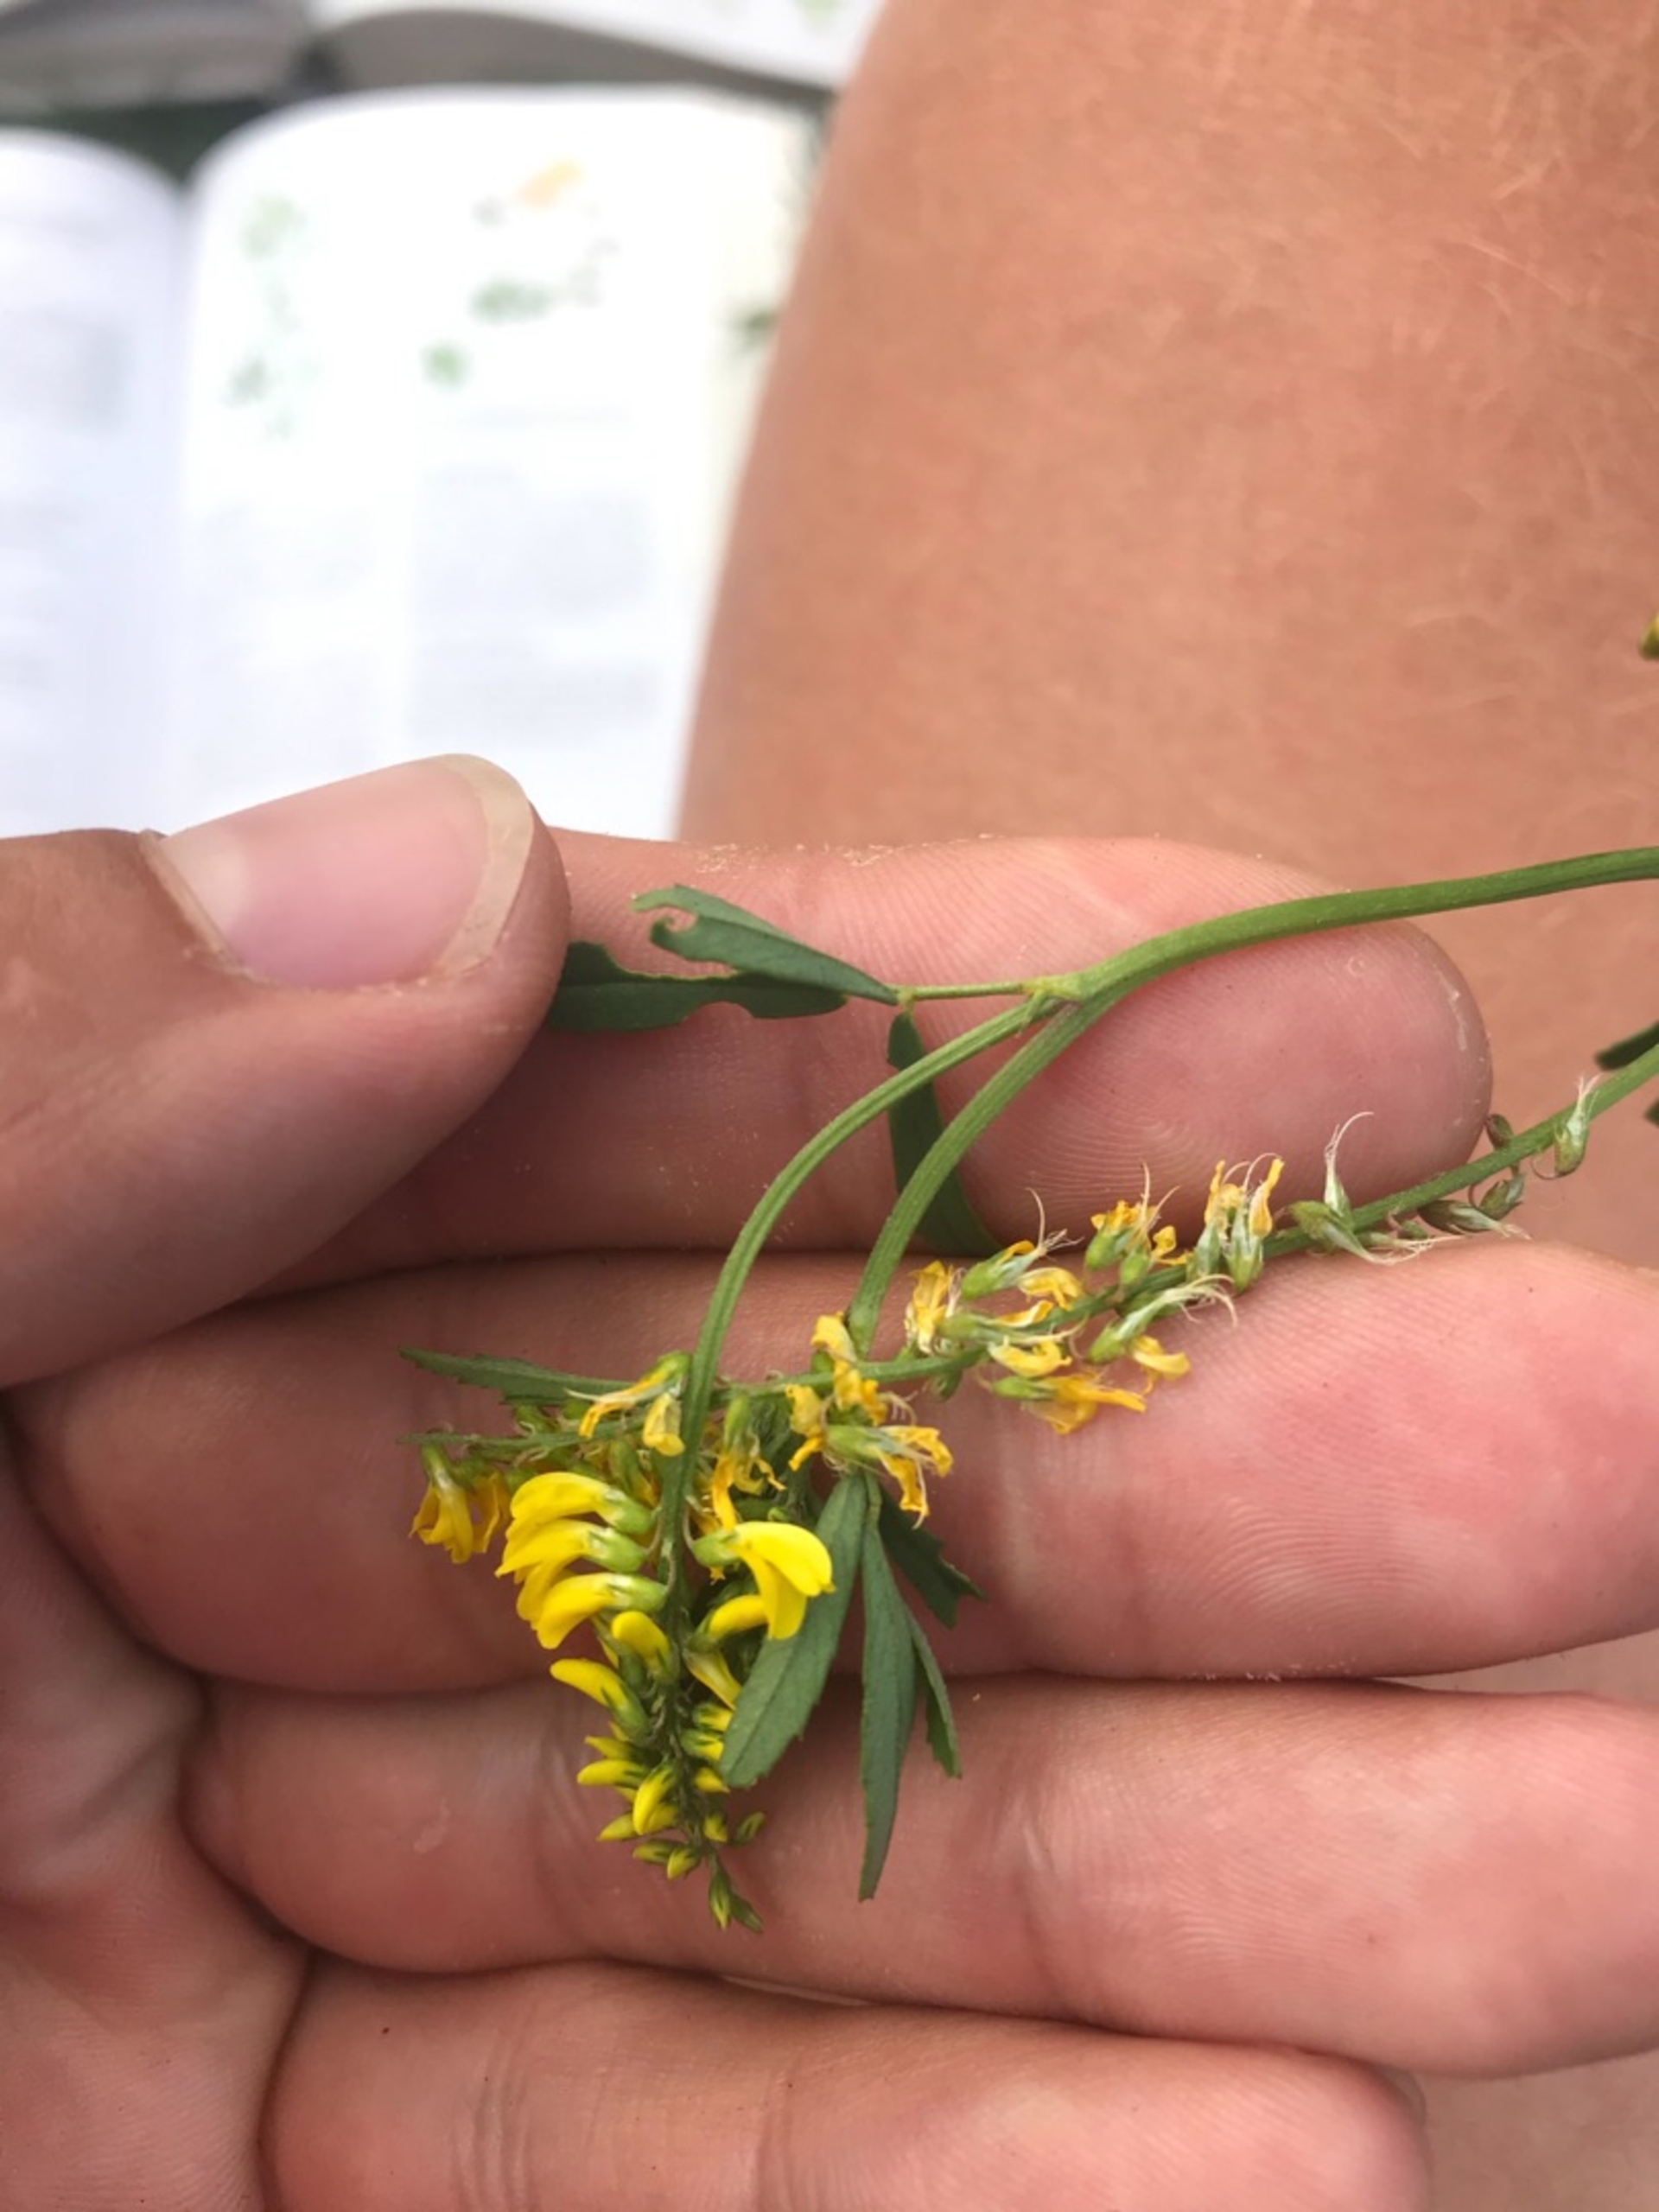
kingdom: Plantae
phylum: Tracheophyta
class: Magnoliopsida
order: Fabales
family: Fabaceae
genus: Melilotus
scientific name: Melilotus altissimus
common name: Høj stenkløver
